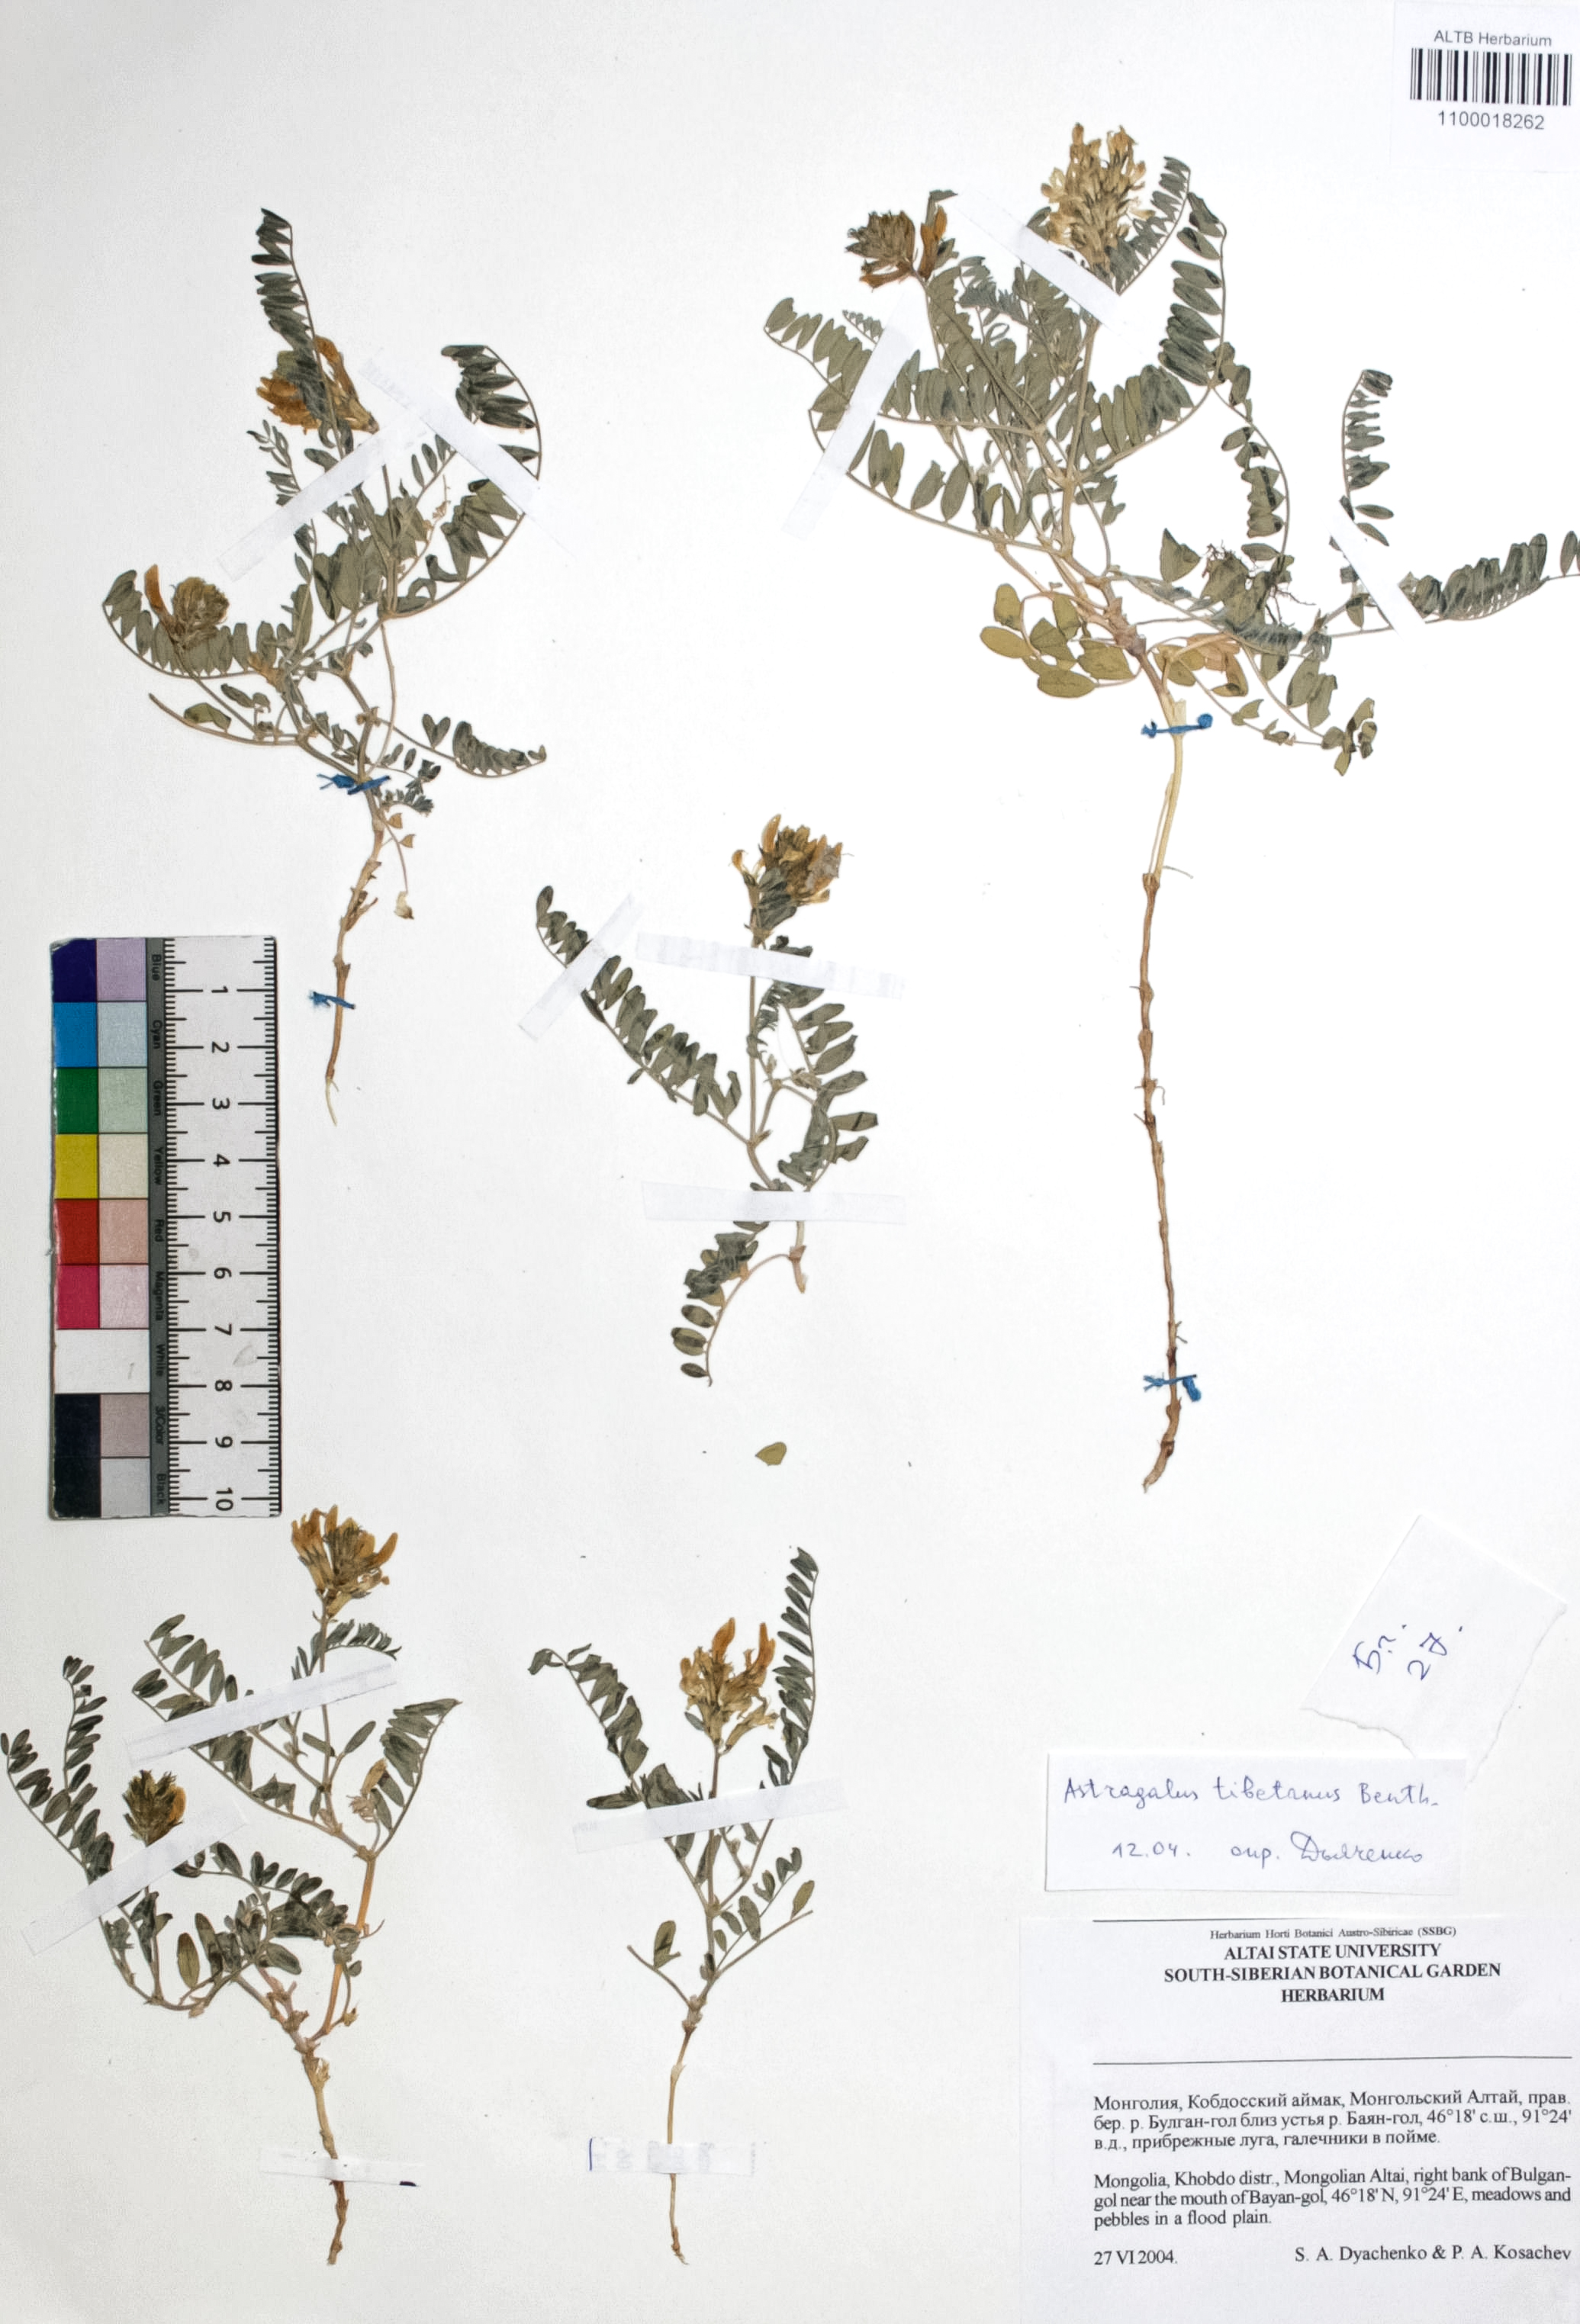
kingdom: Plantae
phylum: Tracheophyta
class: Magnoliopsida
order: Fabales
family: Fabaceae
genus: Astragalus
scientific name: Astragalus tibetanus
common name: Tibet milkvetch
